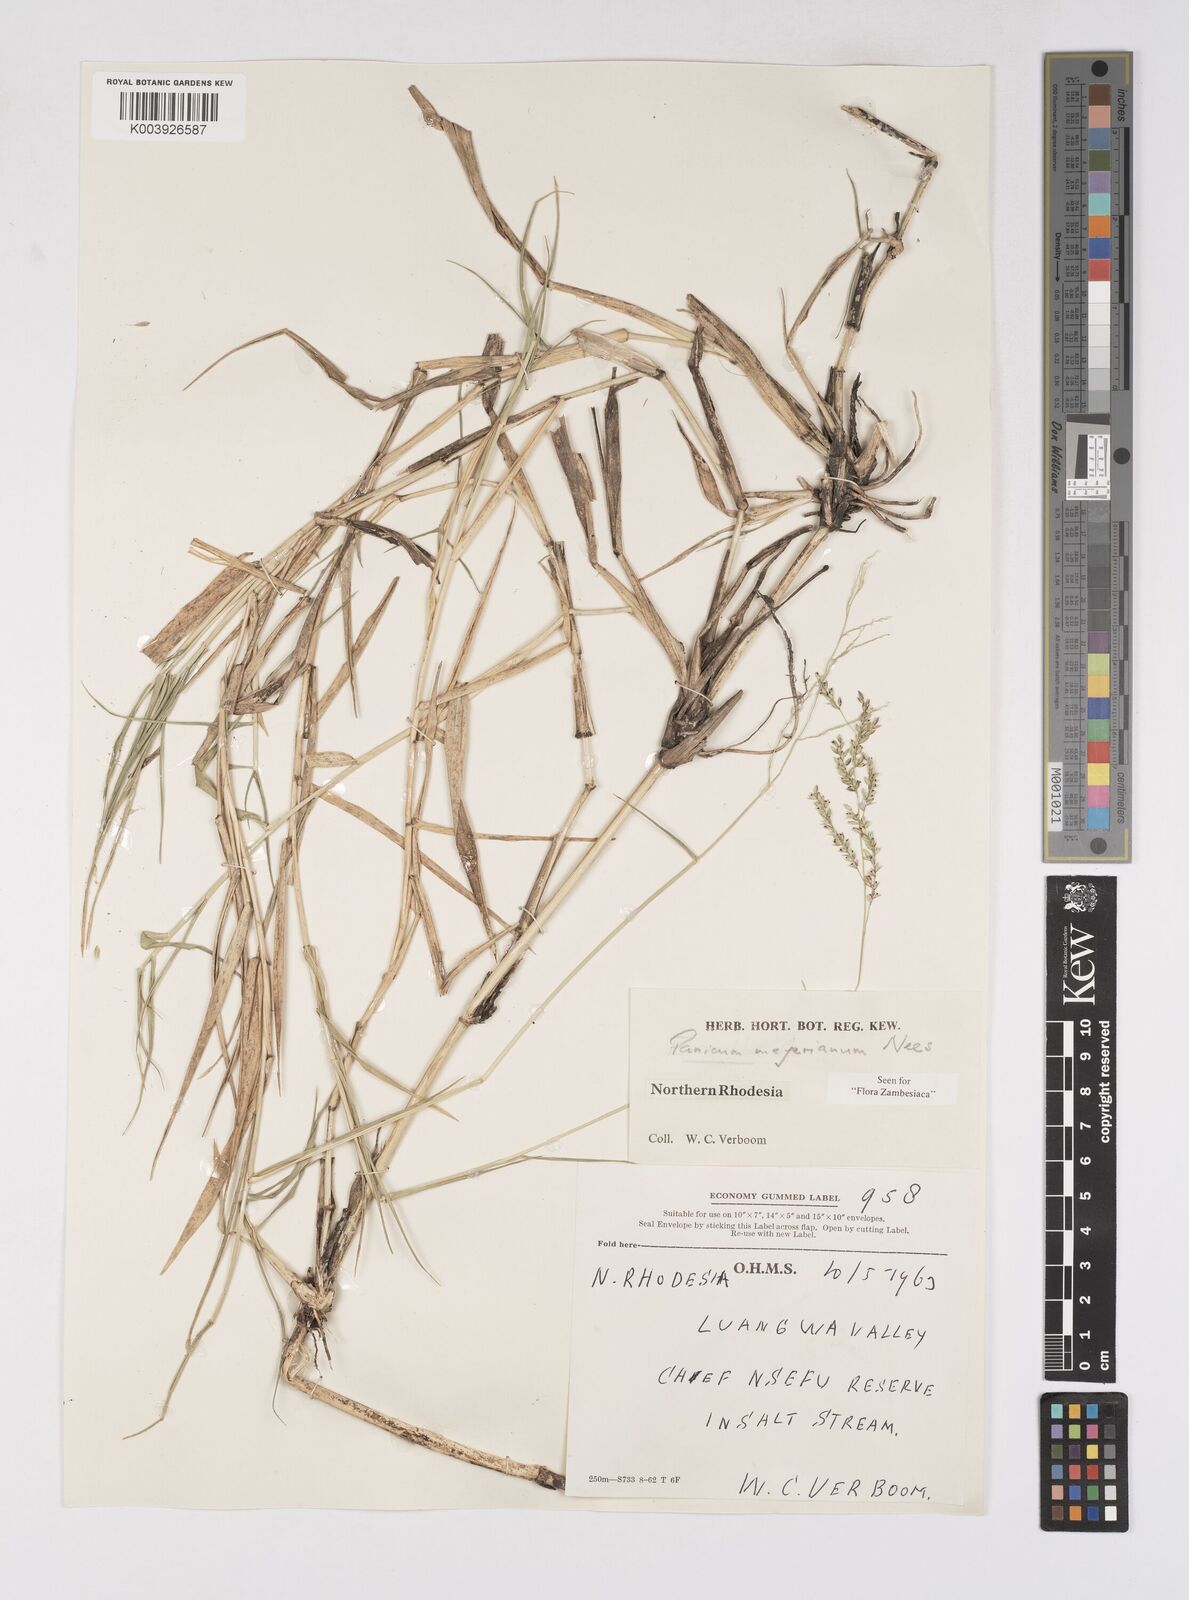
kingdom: Plantae
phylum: Tracheophyta
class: Liliopsida
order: Poales
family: Poaceae
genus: Eriochloa
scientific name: Eriochloa meyeriana
